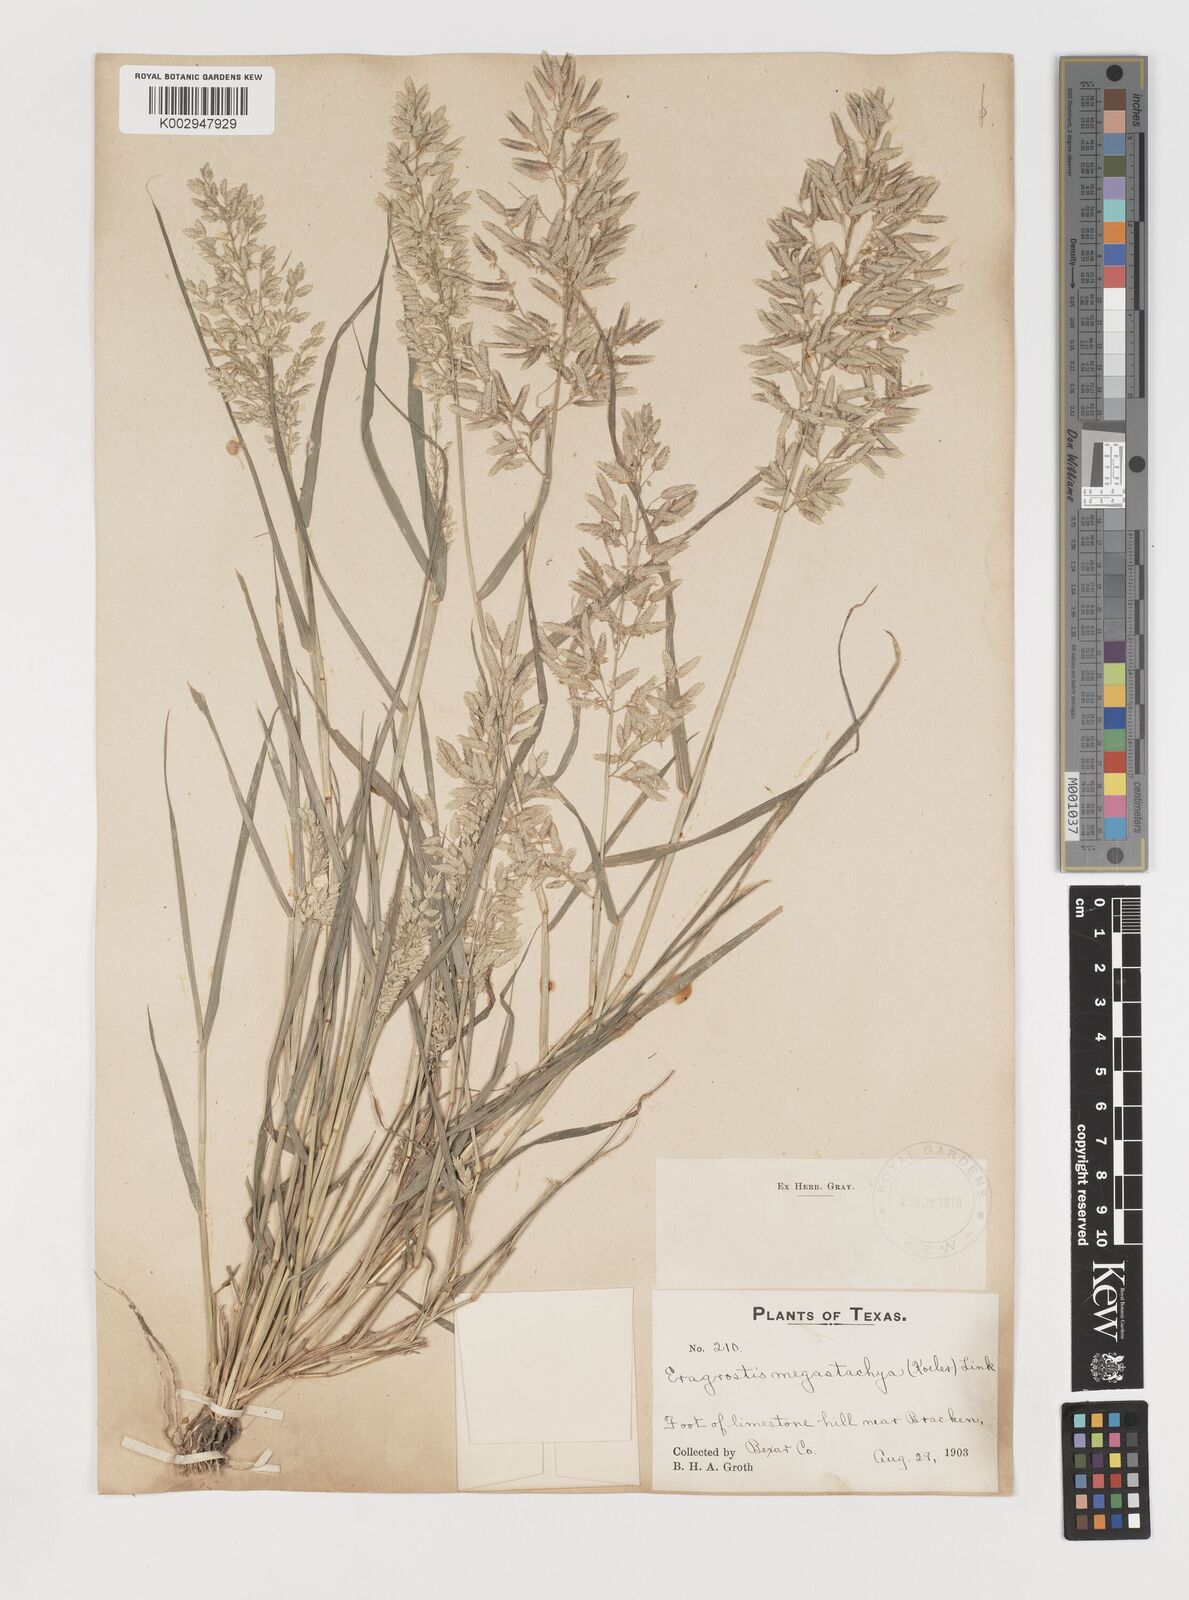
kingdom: Plantae
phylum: Tracheophyta
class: Liliopsida
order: Poales
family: Poaceae
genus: Eragrostis
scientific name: Eragrostis
